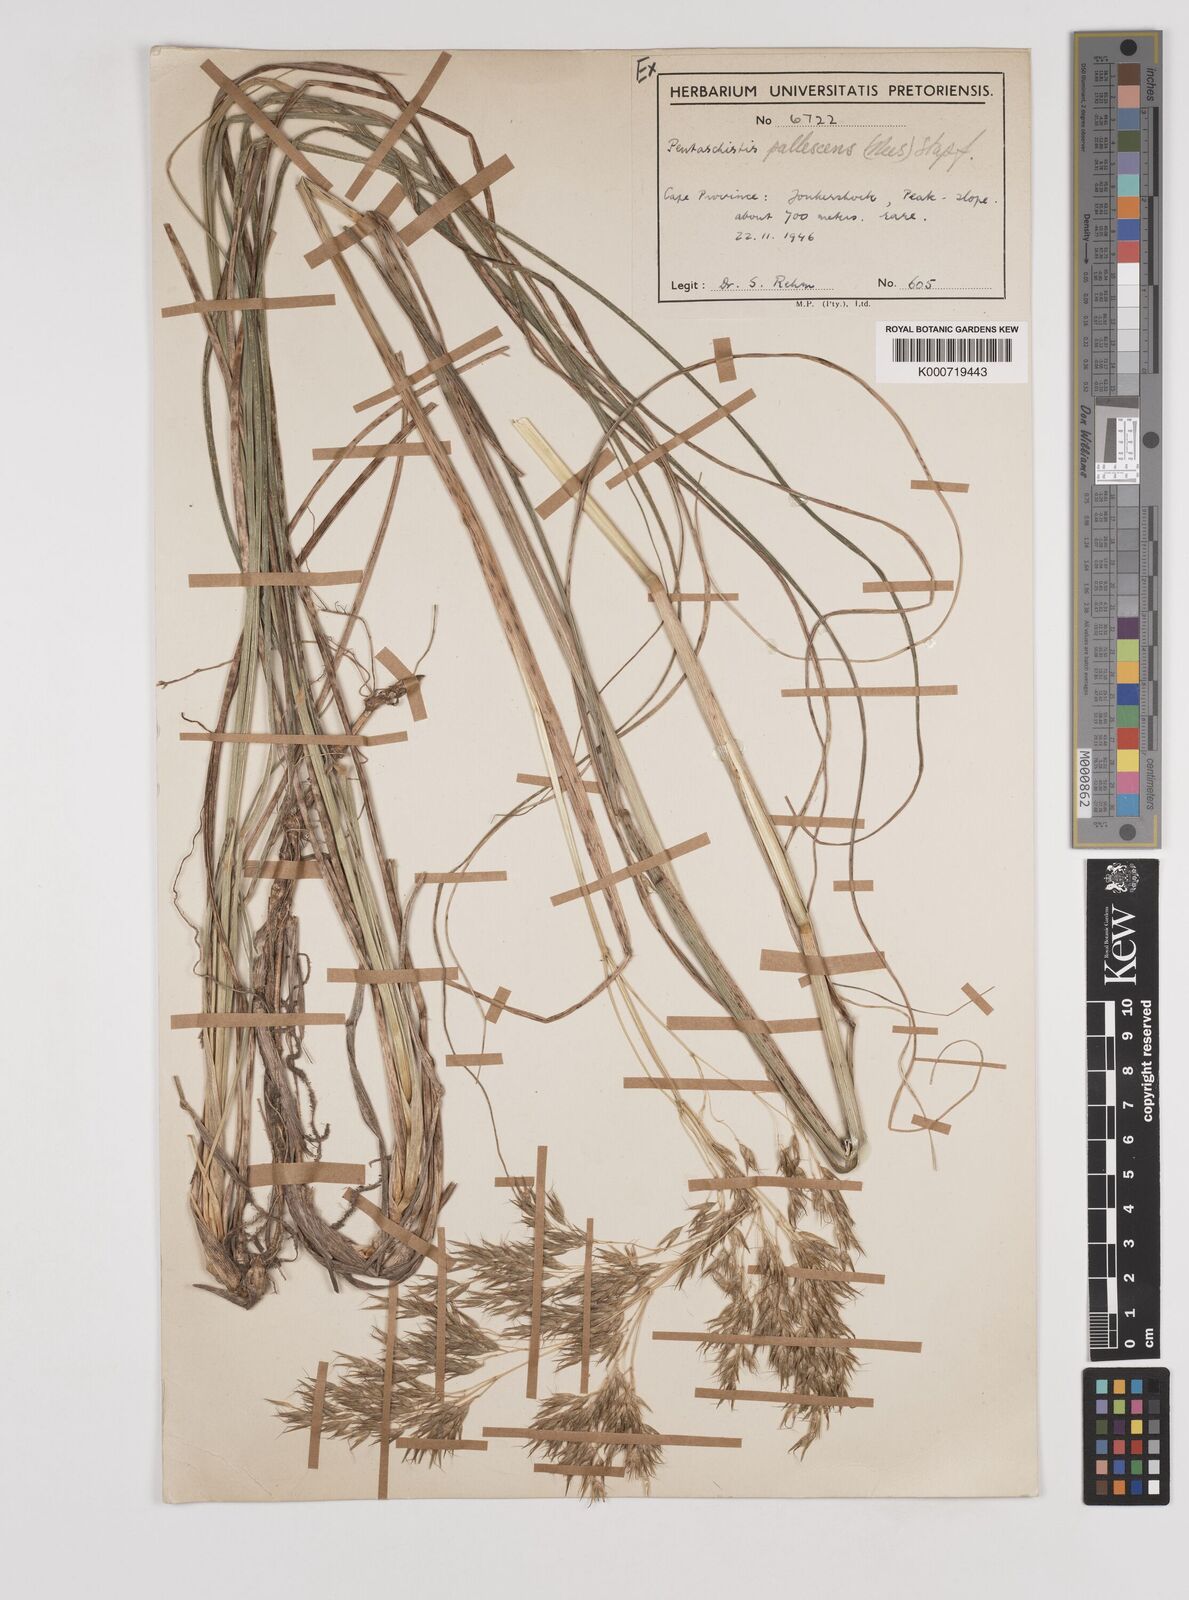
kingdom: Plantae
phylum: Tracheophyta
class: Liliopsida
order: Poales
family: Poaceae
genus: Pentameris
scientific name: Pentameris pallescens
